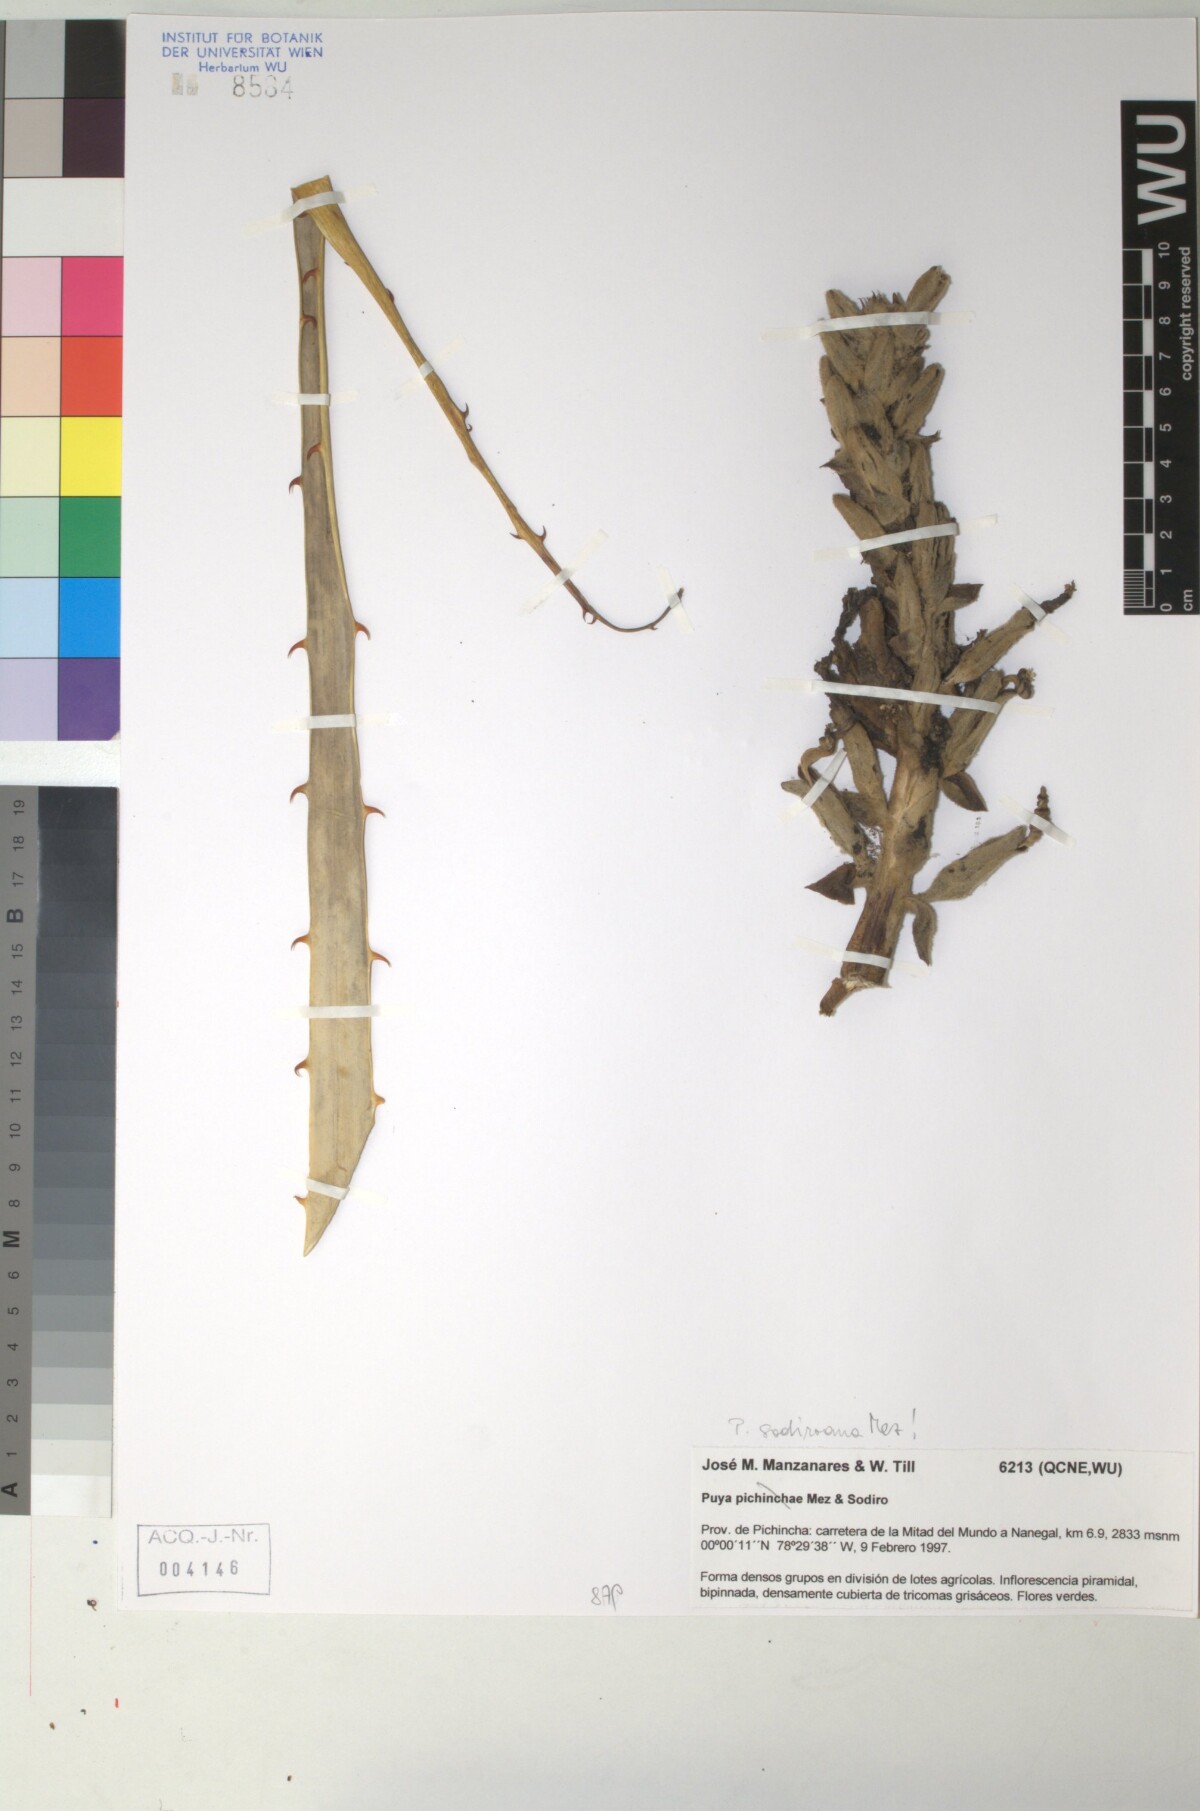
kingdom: Plantae
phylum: Tracheophyta
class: Liliopsida
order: Poales
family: Bromeliaceae
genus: Puya
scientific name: Puya pichinchae
